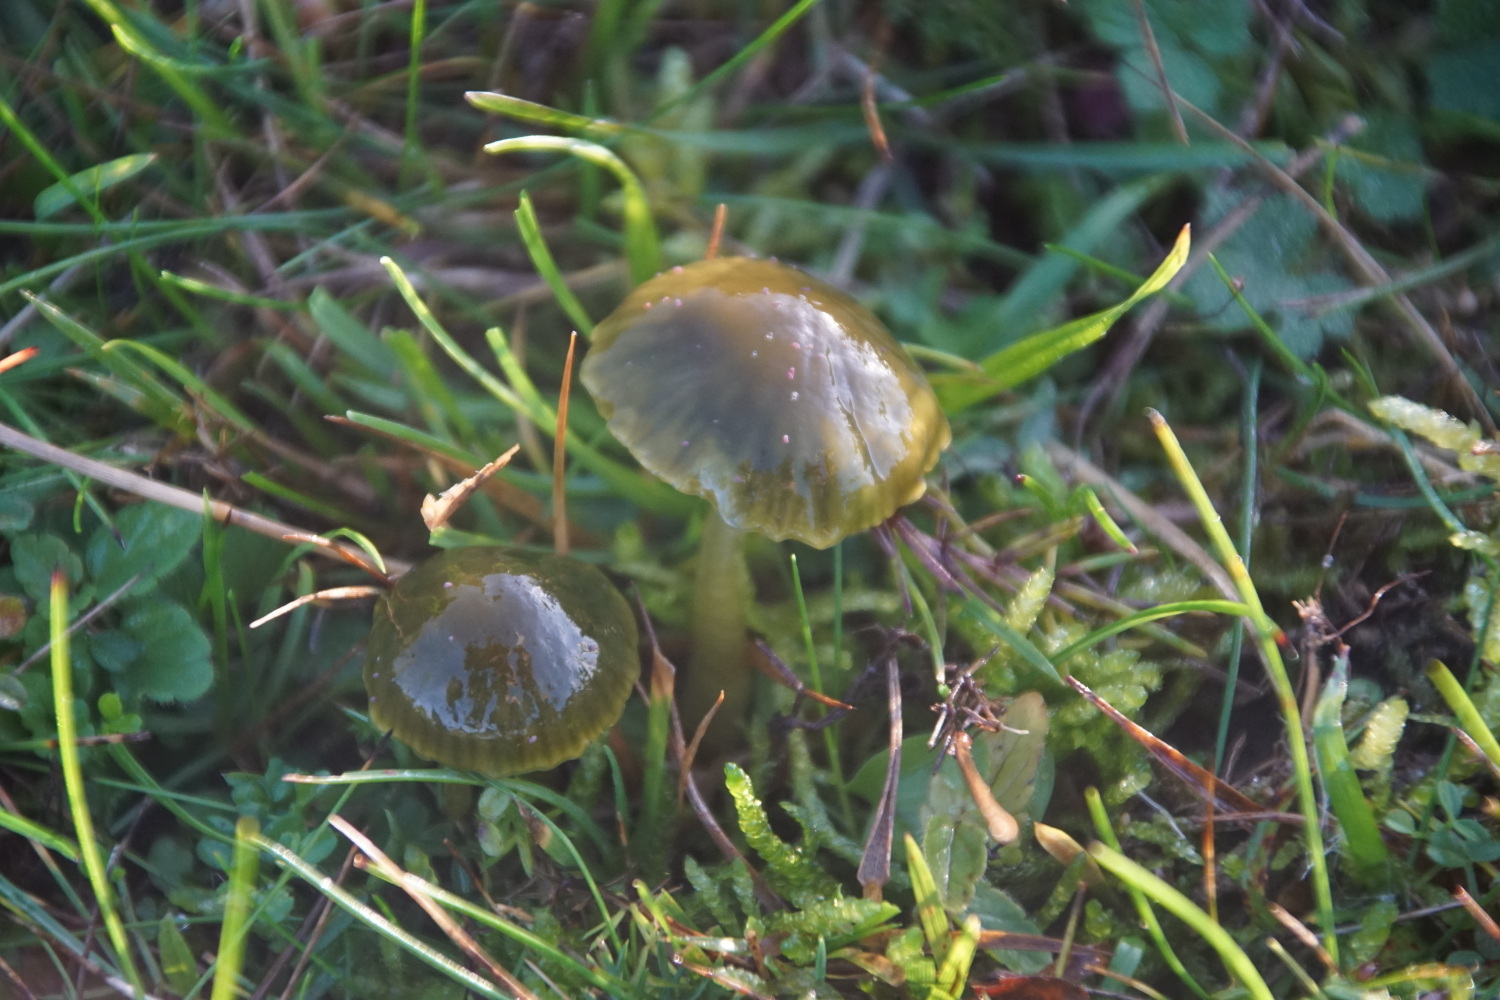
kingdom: Fungi
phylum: Basidiomycota
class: Agaricomycetes
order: Agaricales
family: Hygrophoraceae
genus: Gliophorus
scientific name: Gliophorus psittacinus
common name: papegøje-vokshat
